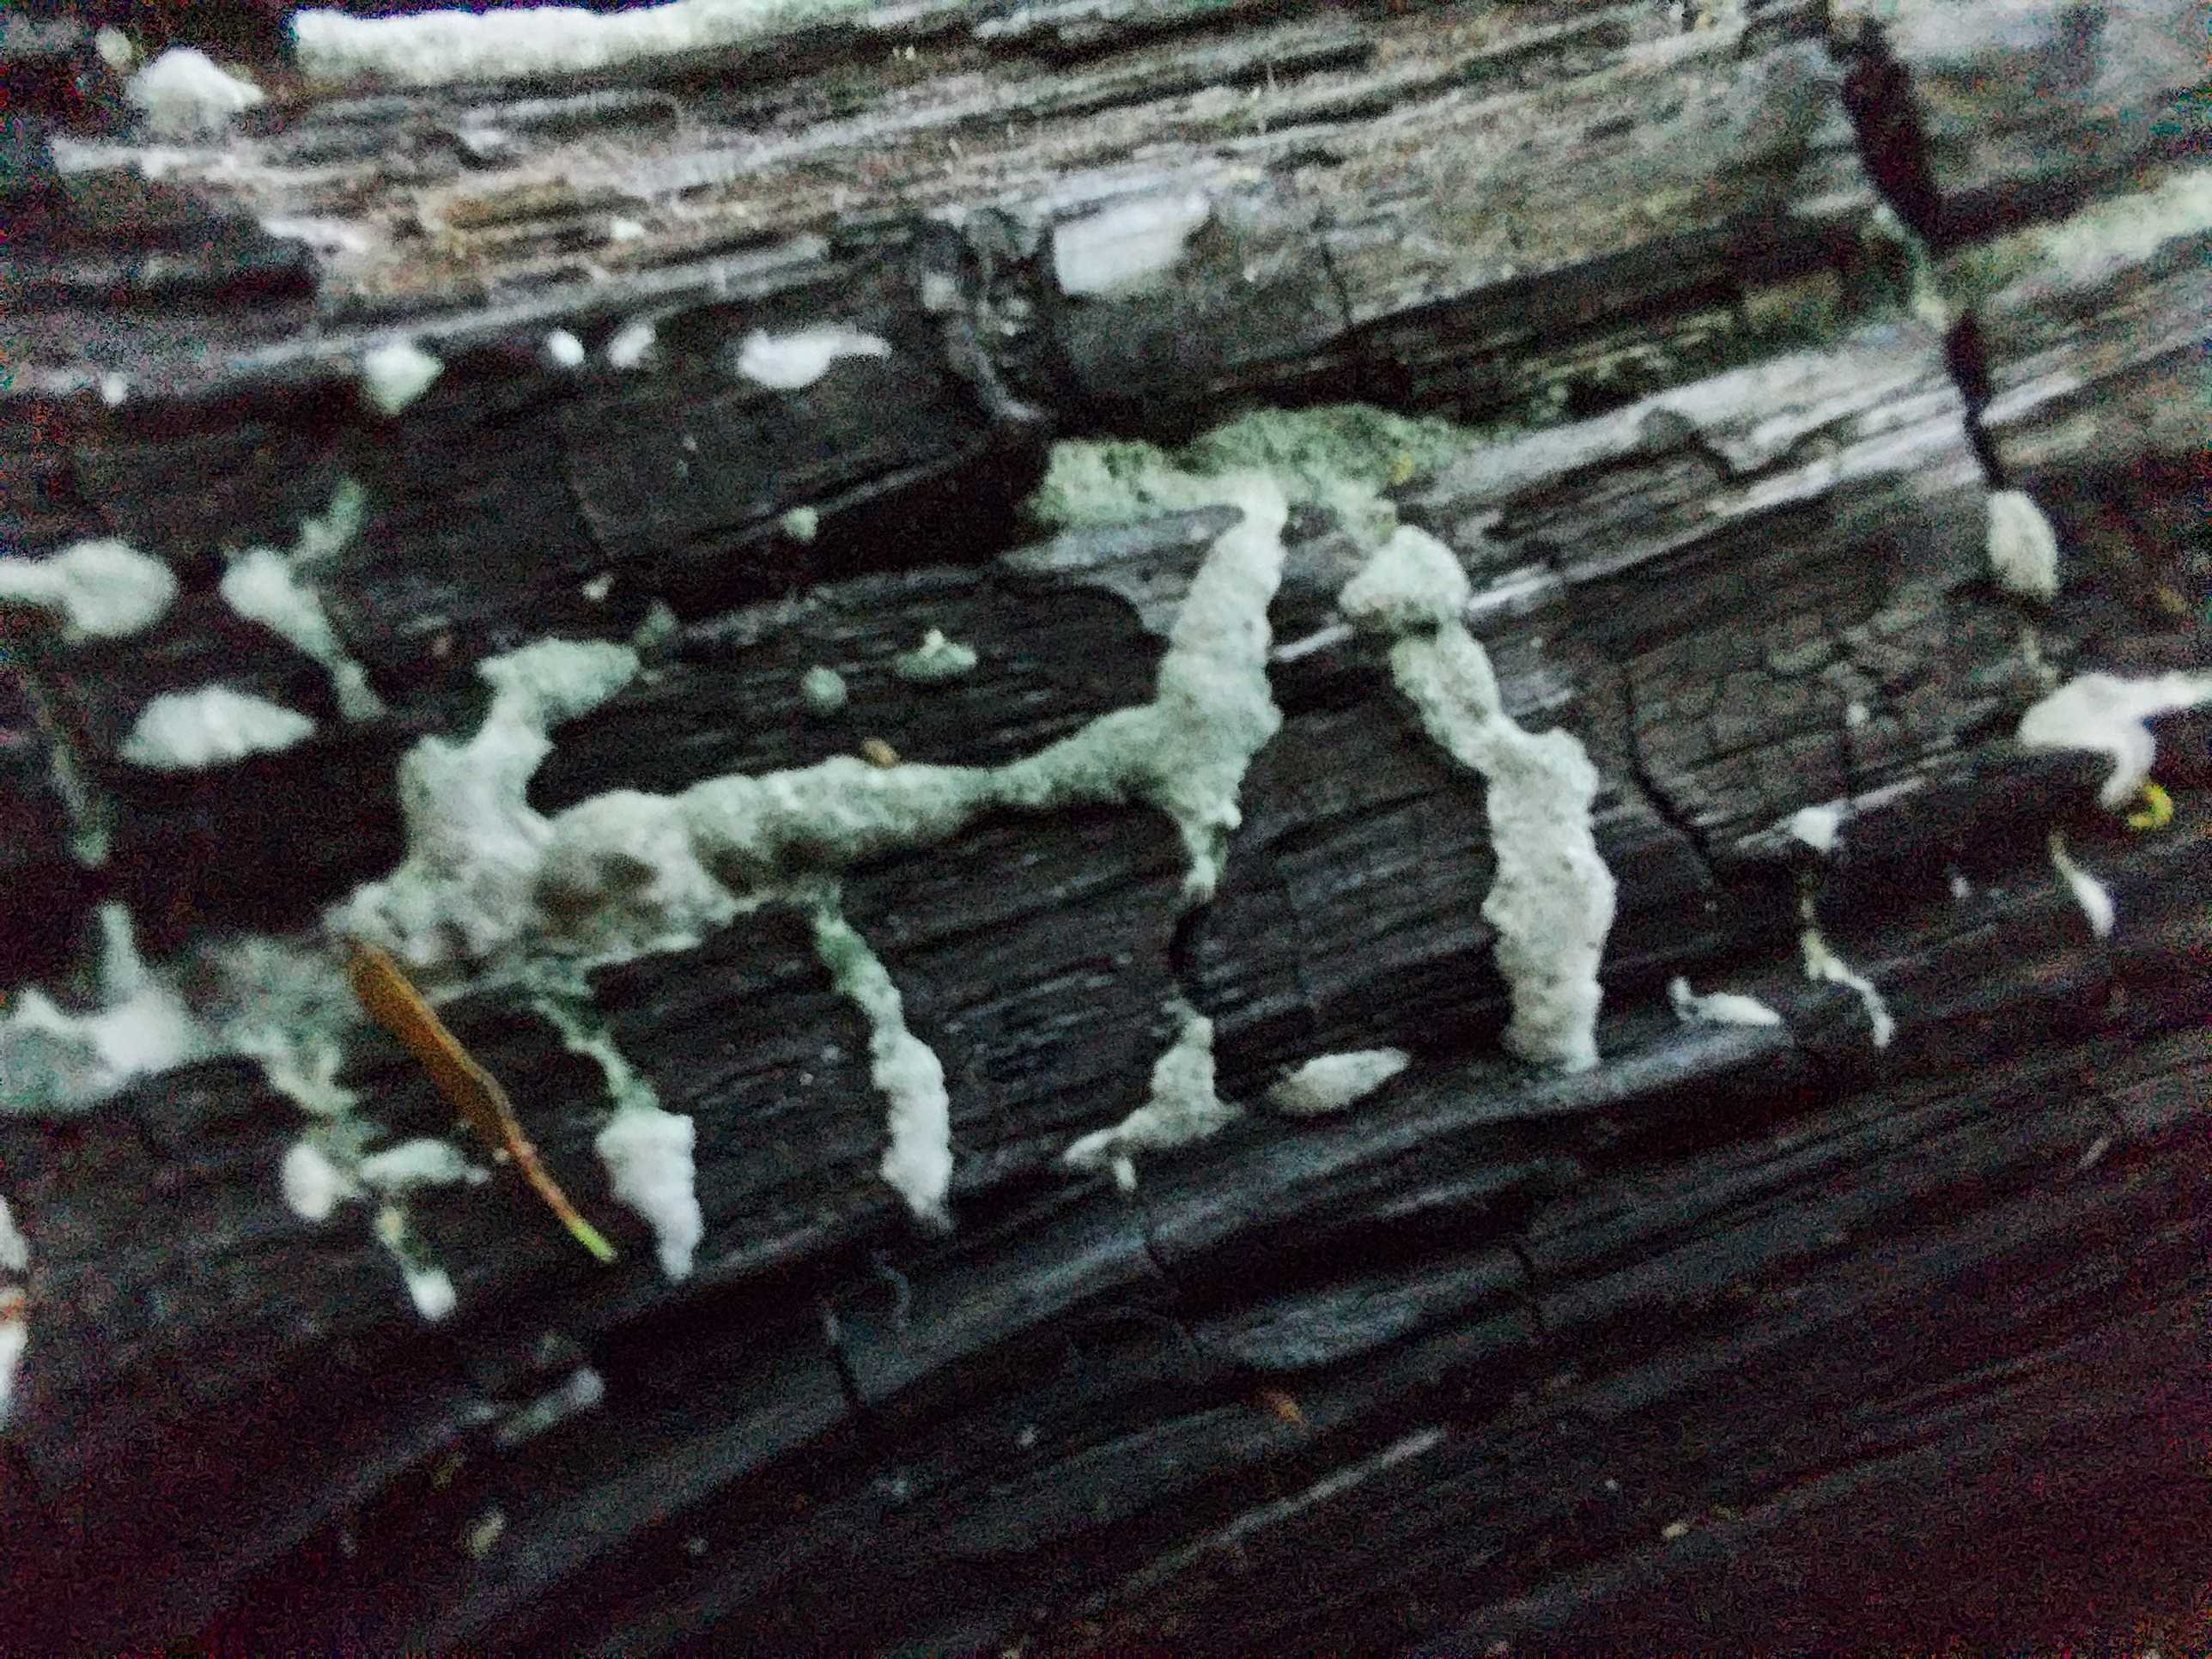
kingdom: Fungi
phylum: Ascomycota
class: Sordariomycetes
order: Hypocreales
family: Hypocreaceae
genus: Trichoderma
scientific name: Trichoderma
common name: kødkerne
